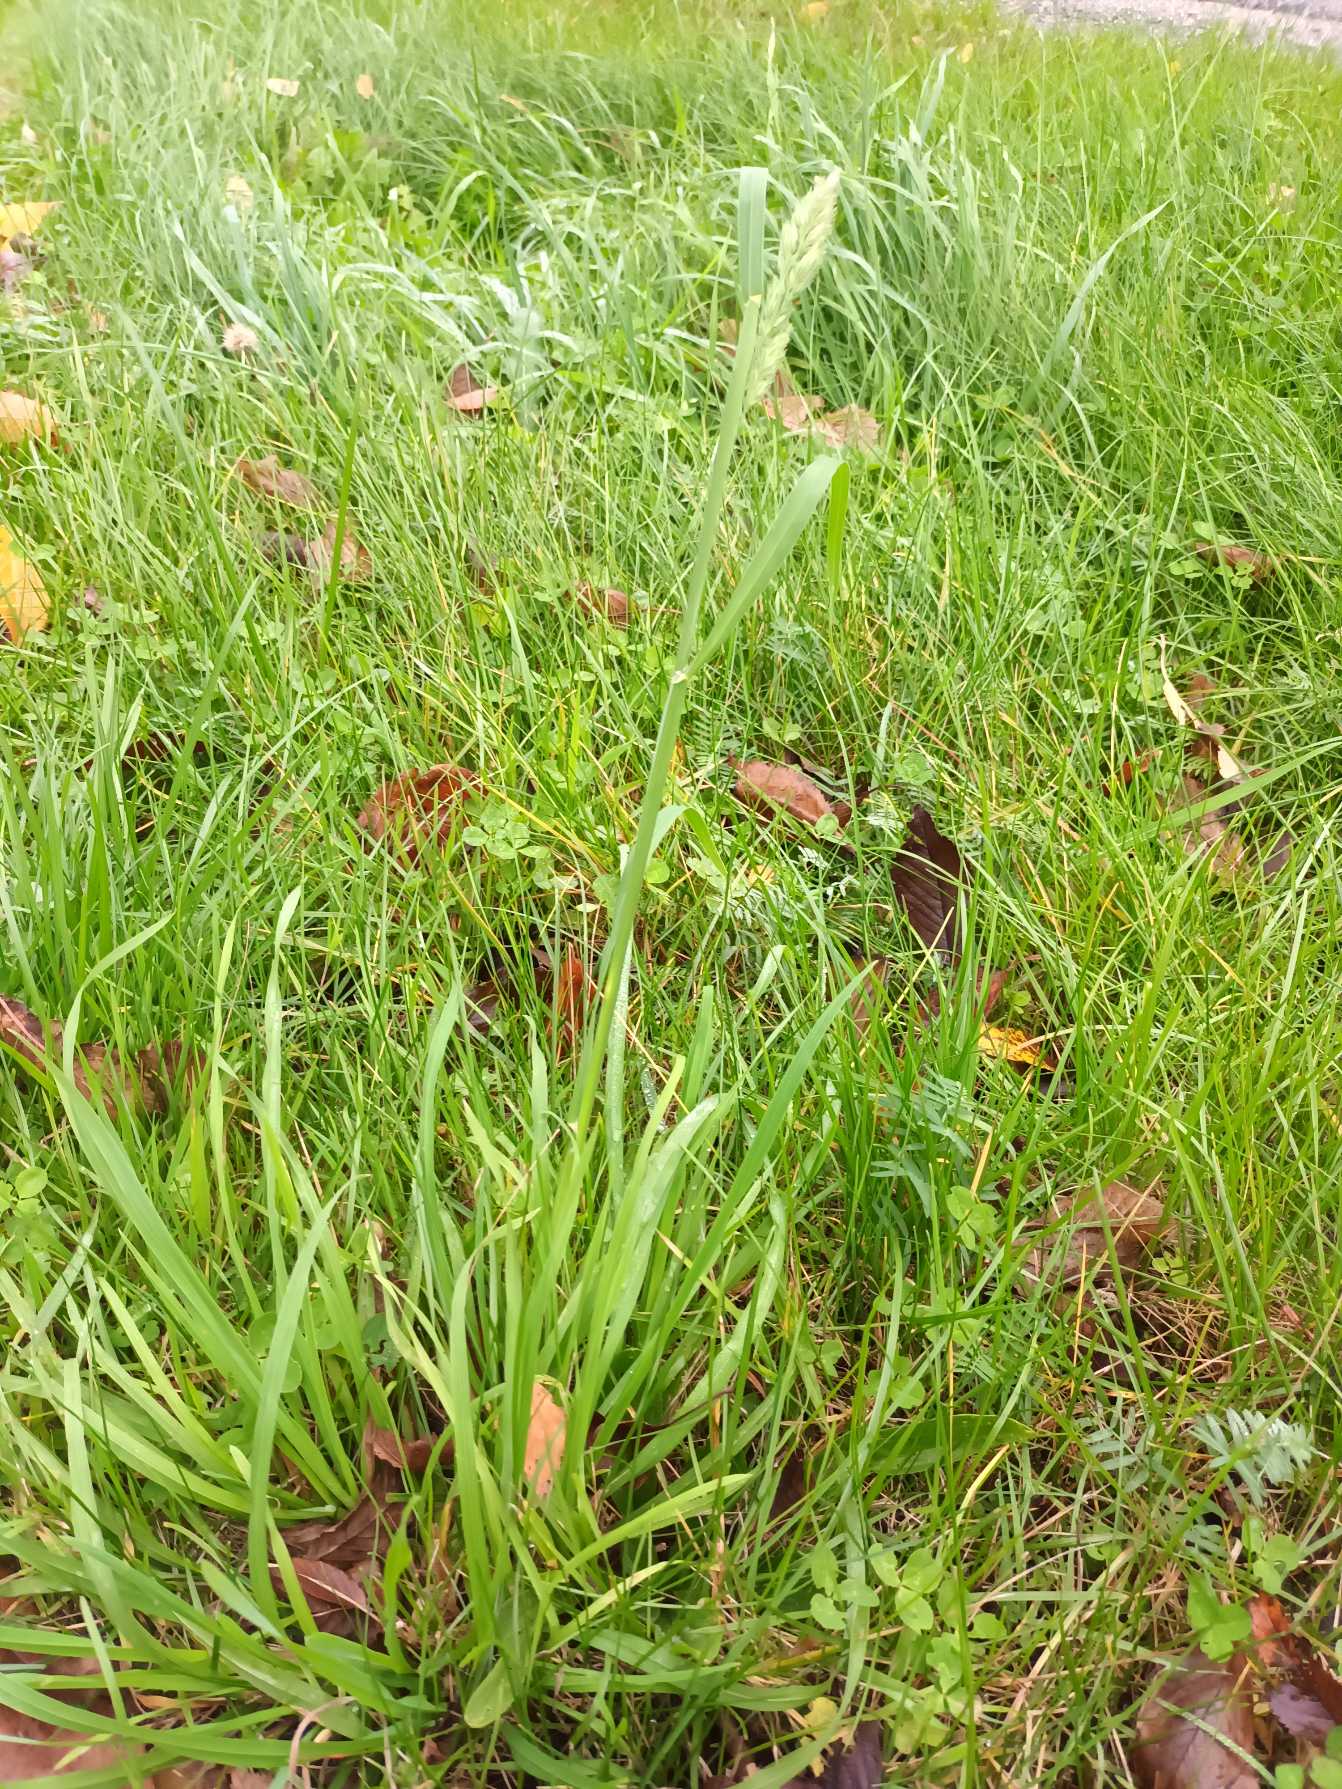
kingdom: Plantae
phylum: Tracheophyta
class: Liliopsida
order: Poales
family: Poaceae
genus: Dactylis
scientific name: Dactylis glomerata
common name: Almindelig hundegræs
